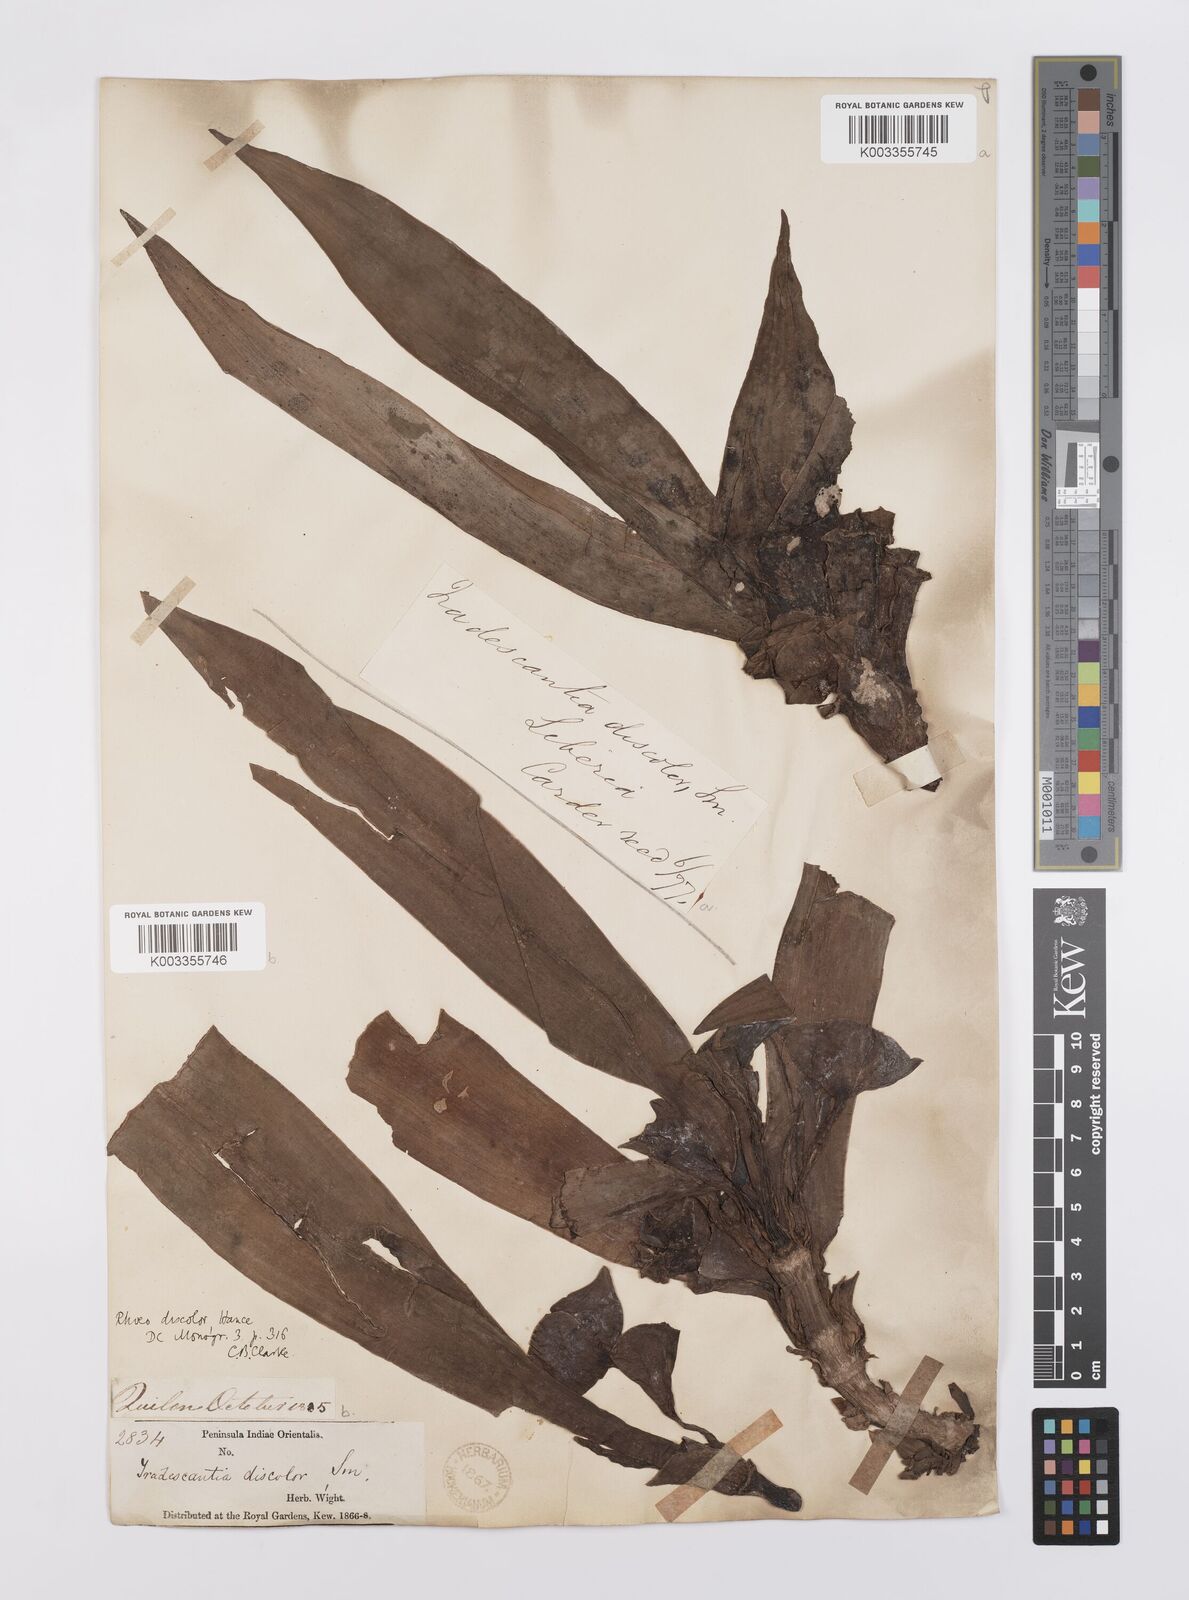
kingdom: Plantae
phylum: Tracheophyta
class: Liliopsida
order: Commelinales
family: Commelinaceae
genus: Tradescantia
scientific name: Tradescantia spathacea
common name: Boatlily
